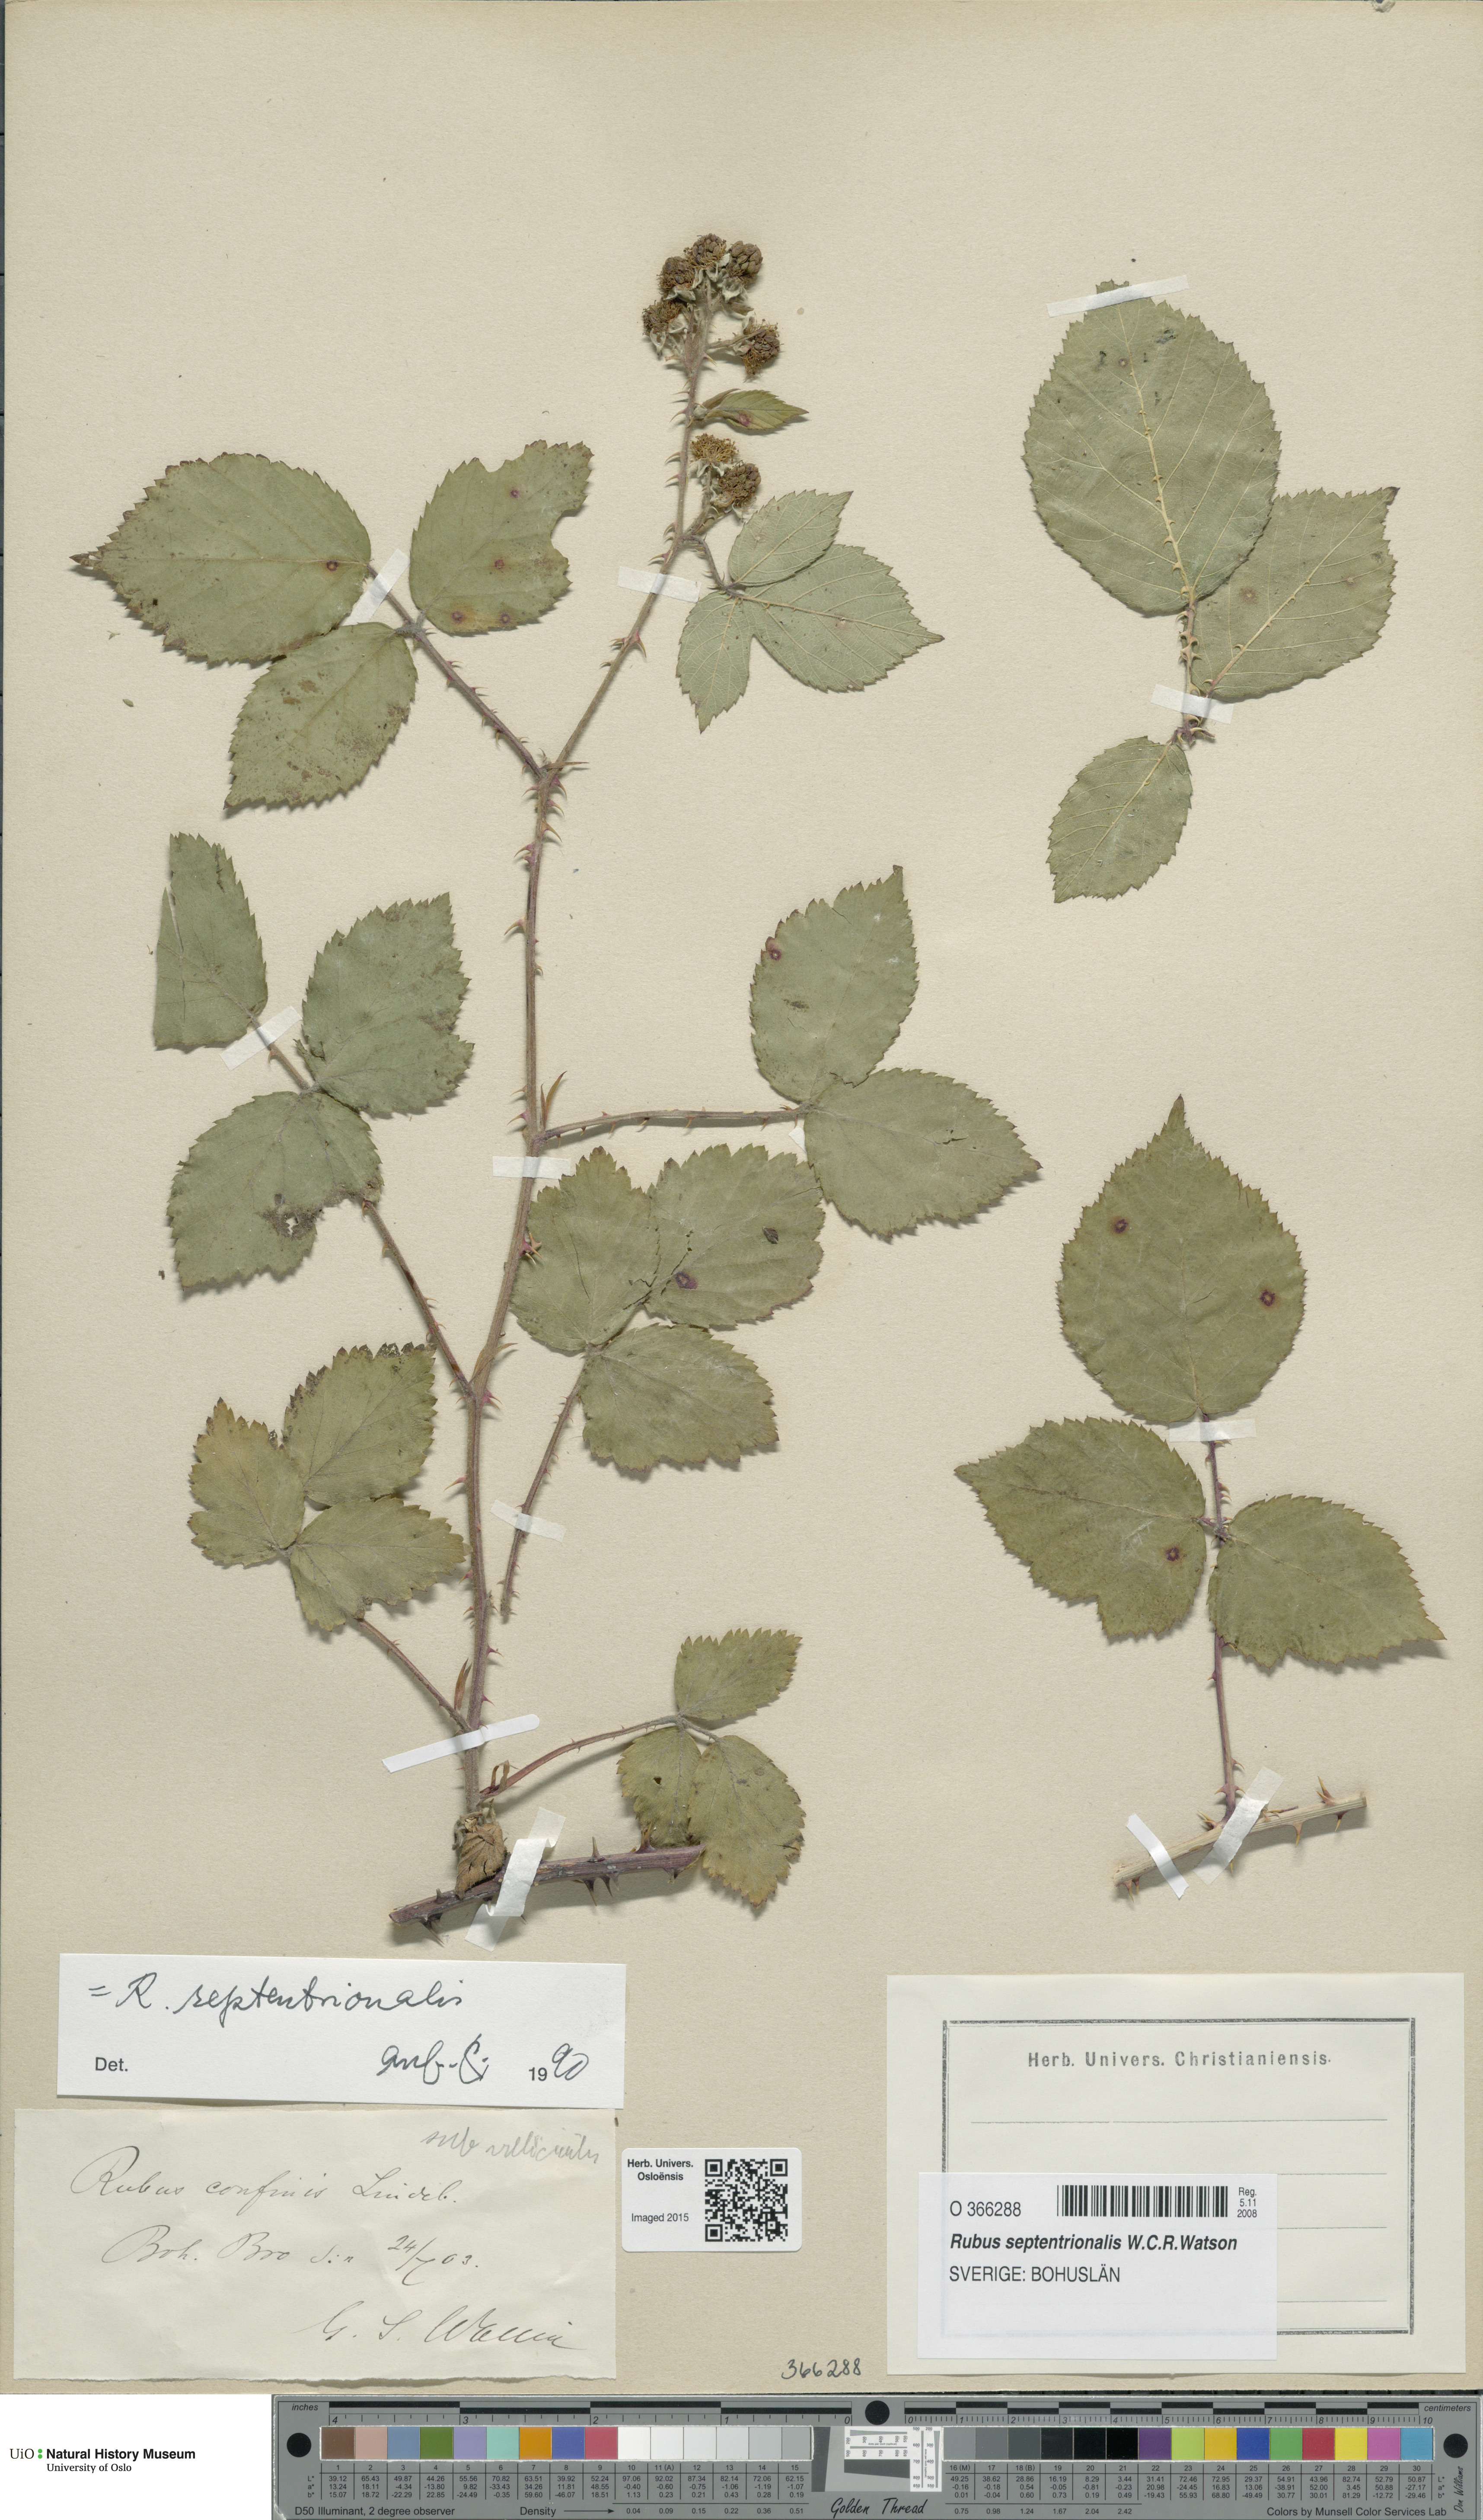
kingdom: Plantae
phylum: Tracheophyta
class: Magnoliopsida
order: Rosales
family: Rosaceae
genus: Rubus
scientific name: Rubus septentrionalis
